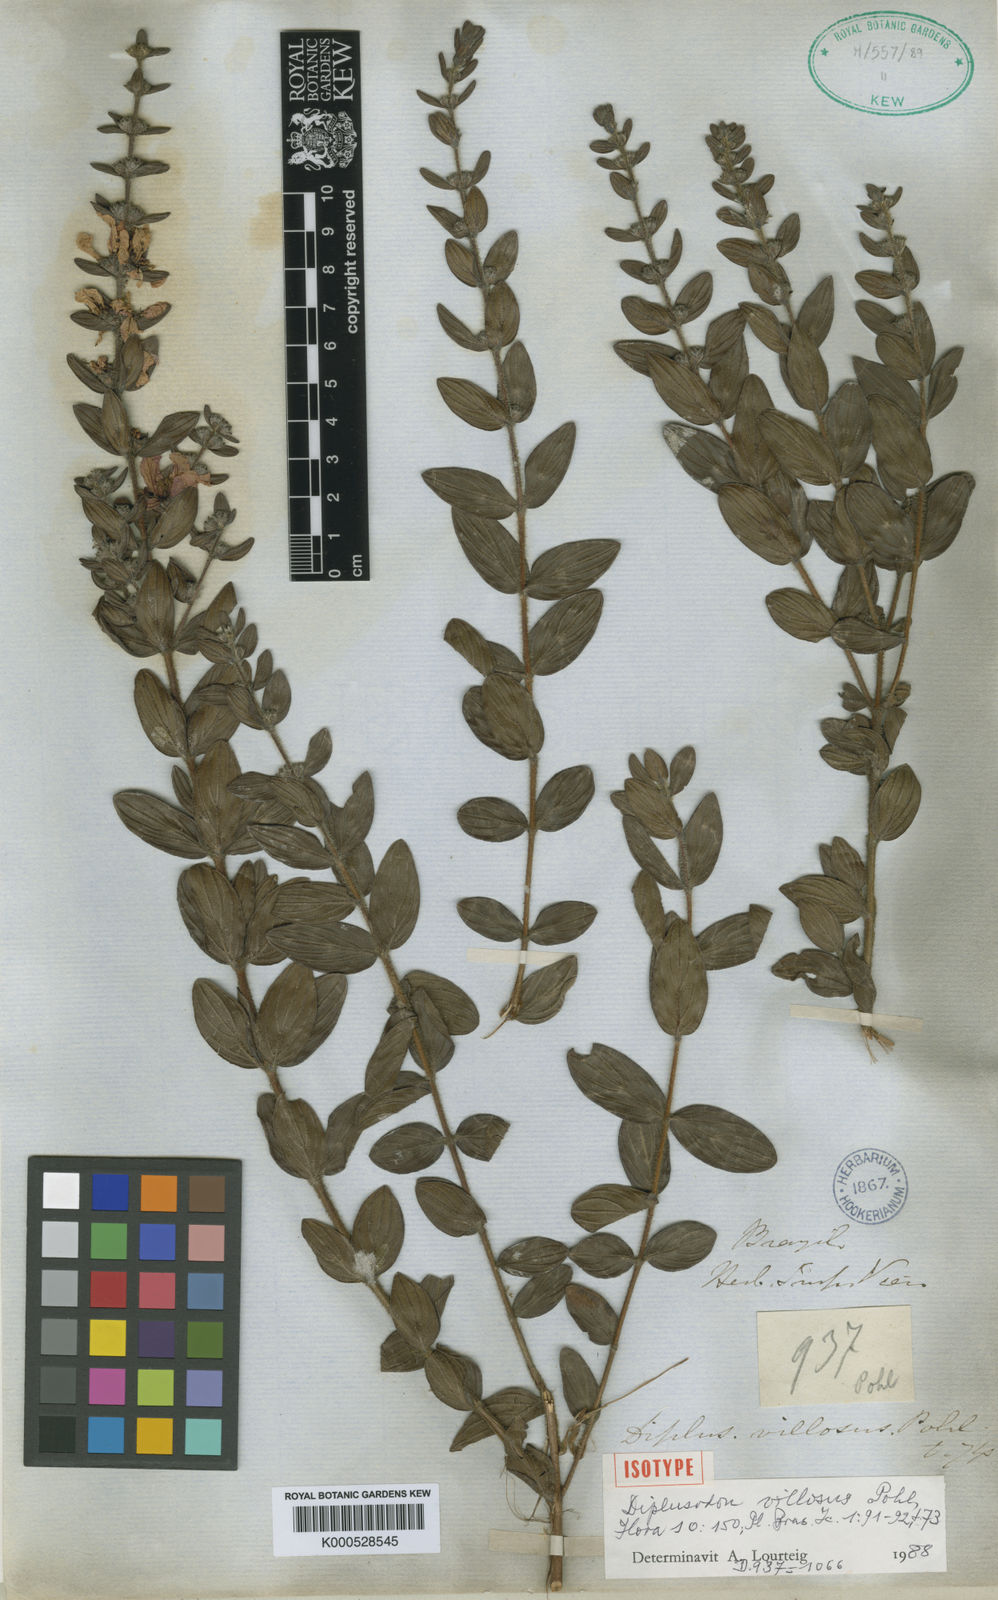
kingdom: Plantae
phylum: Tracheophyta
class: Magnoliopsida
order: Myrtales
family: Lythraceae
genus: Diplusodon
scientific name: Diplusodon villosus
